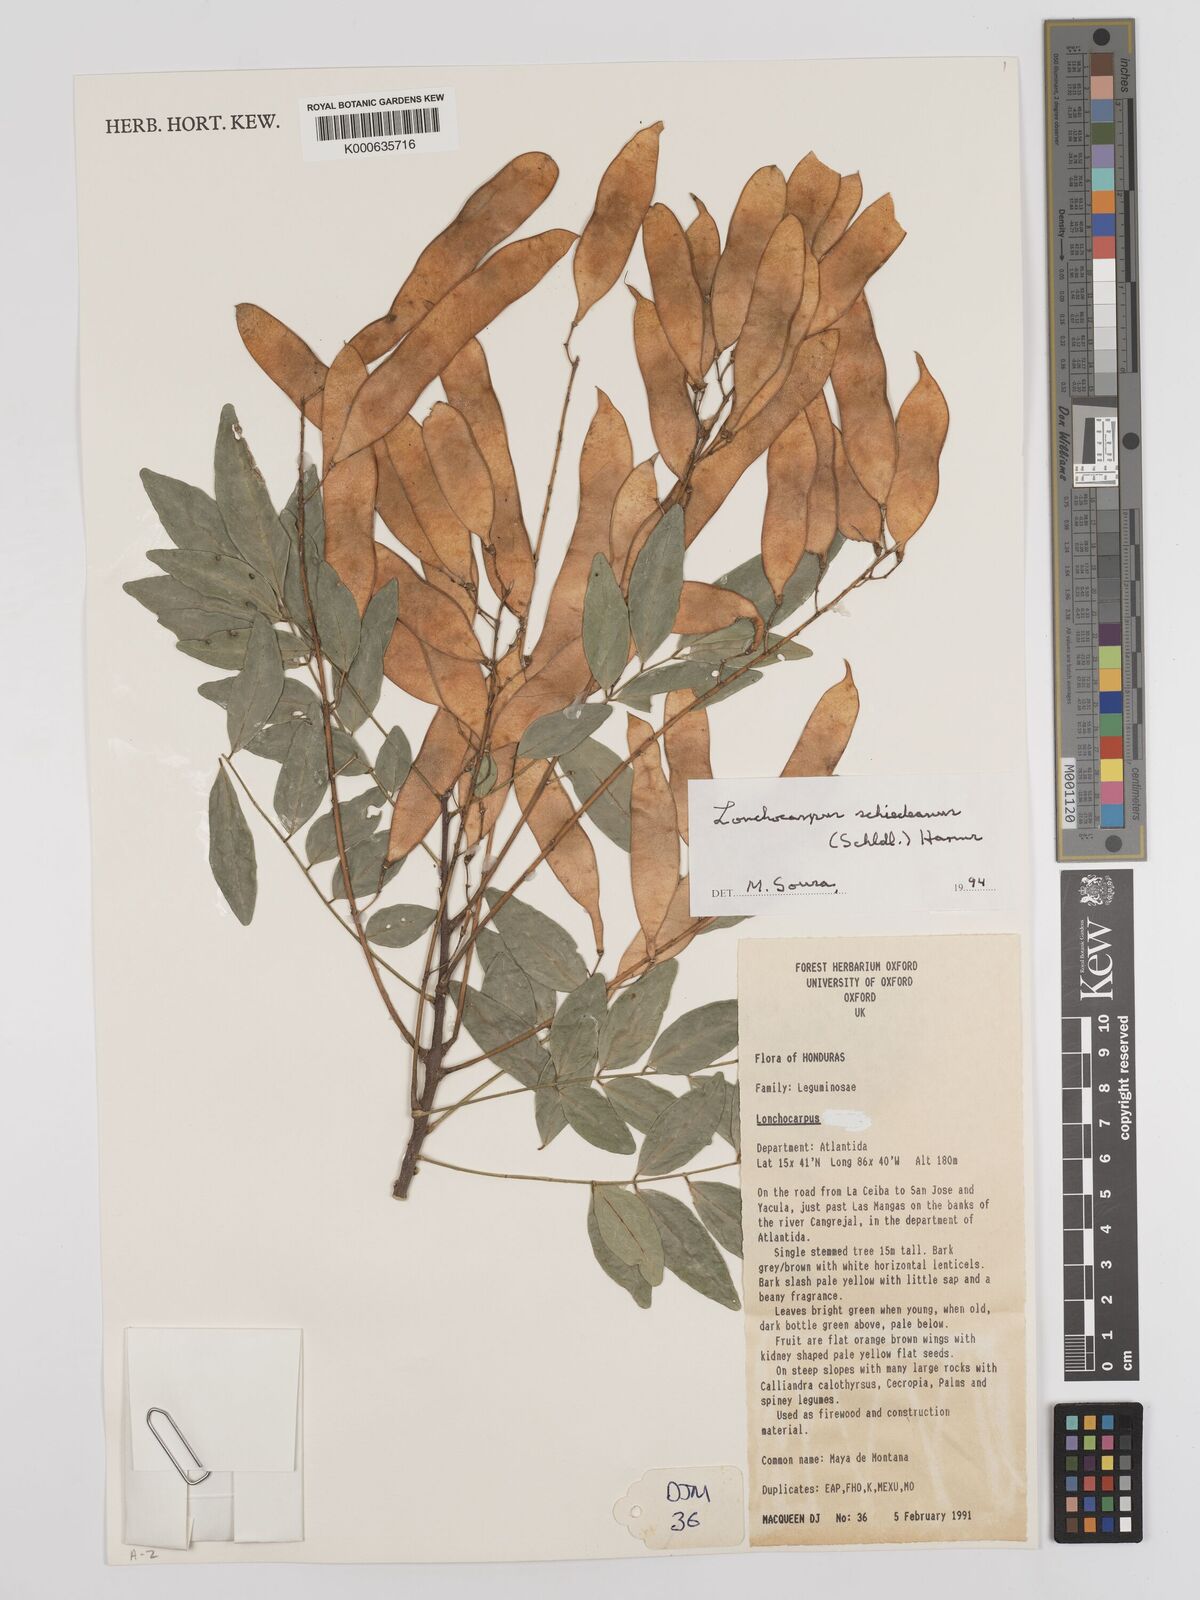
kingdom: Plantae
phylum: Tracheophyta
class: Magnoliopsida
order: Fabales
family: Fabaceae
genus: Lonchocarpus
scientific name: Lonchocarpus schiedeanus
